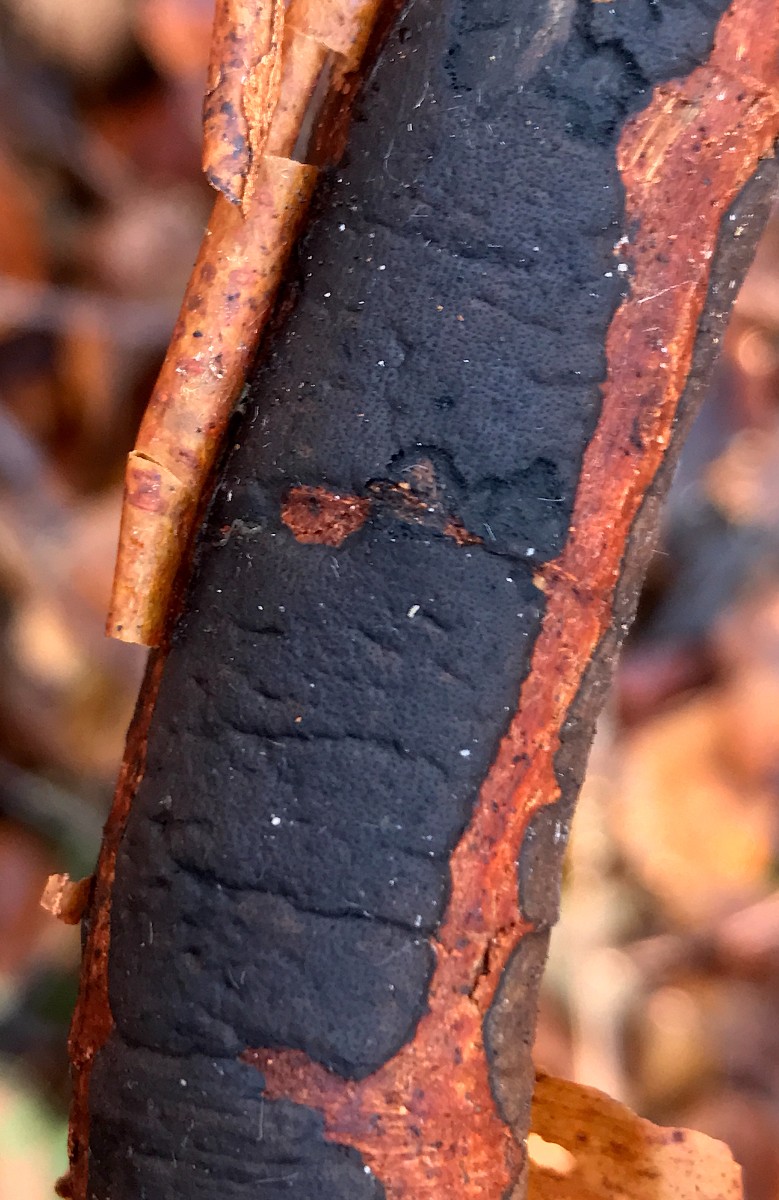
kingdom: Fungi
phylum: Ascomycota
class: Sordariomycetes
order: Xylariales
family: Diatrypaceae
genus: Diatrype
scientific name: Diatrype decorticata
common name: barksprænger-kulskorpe
